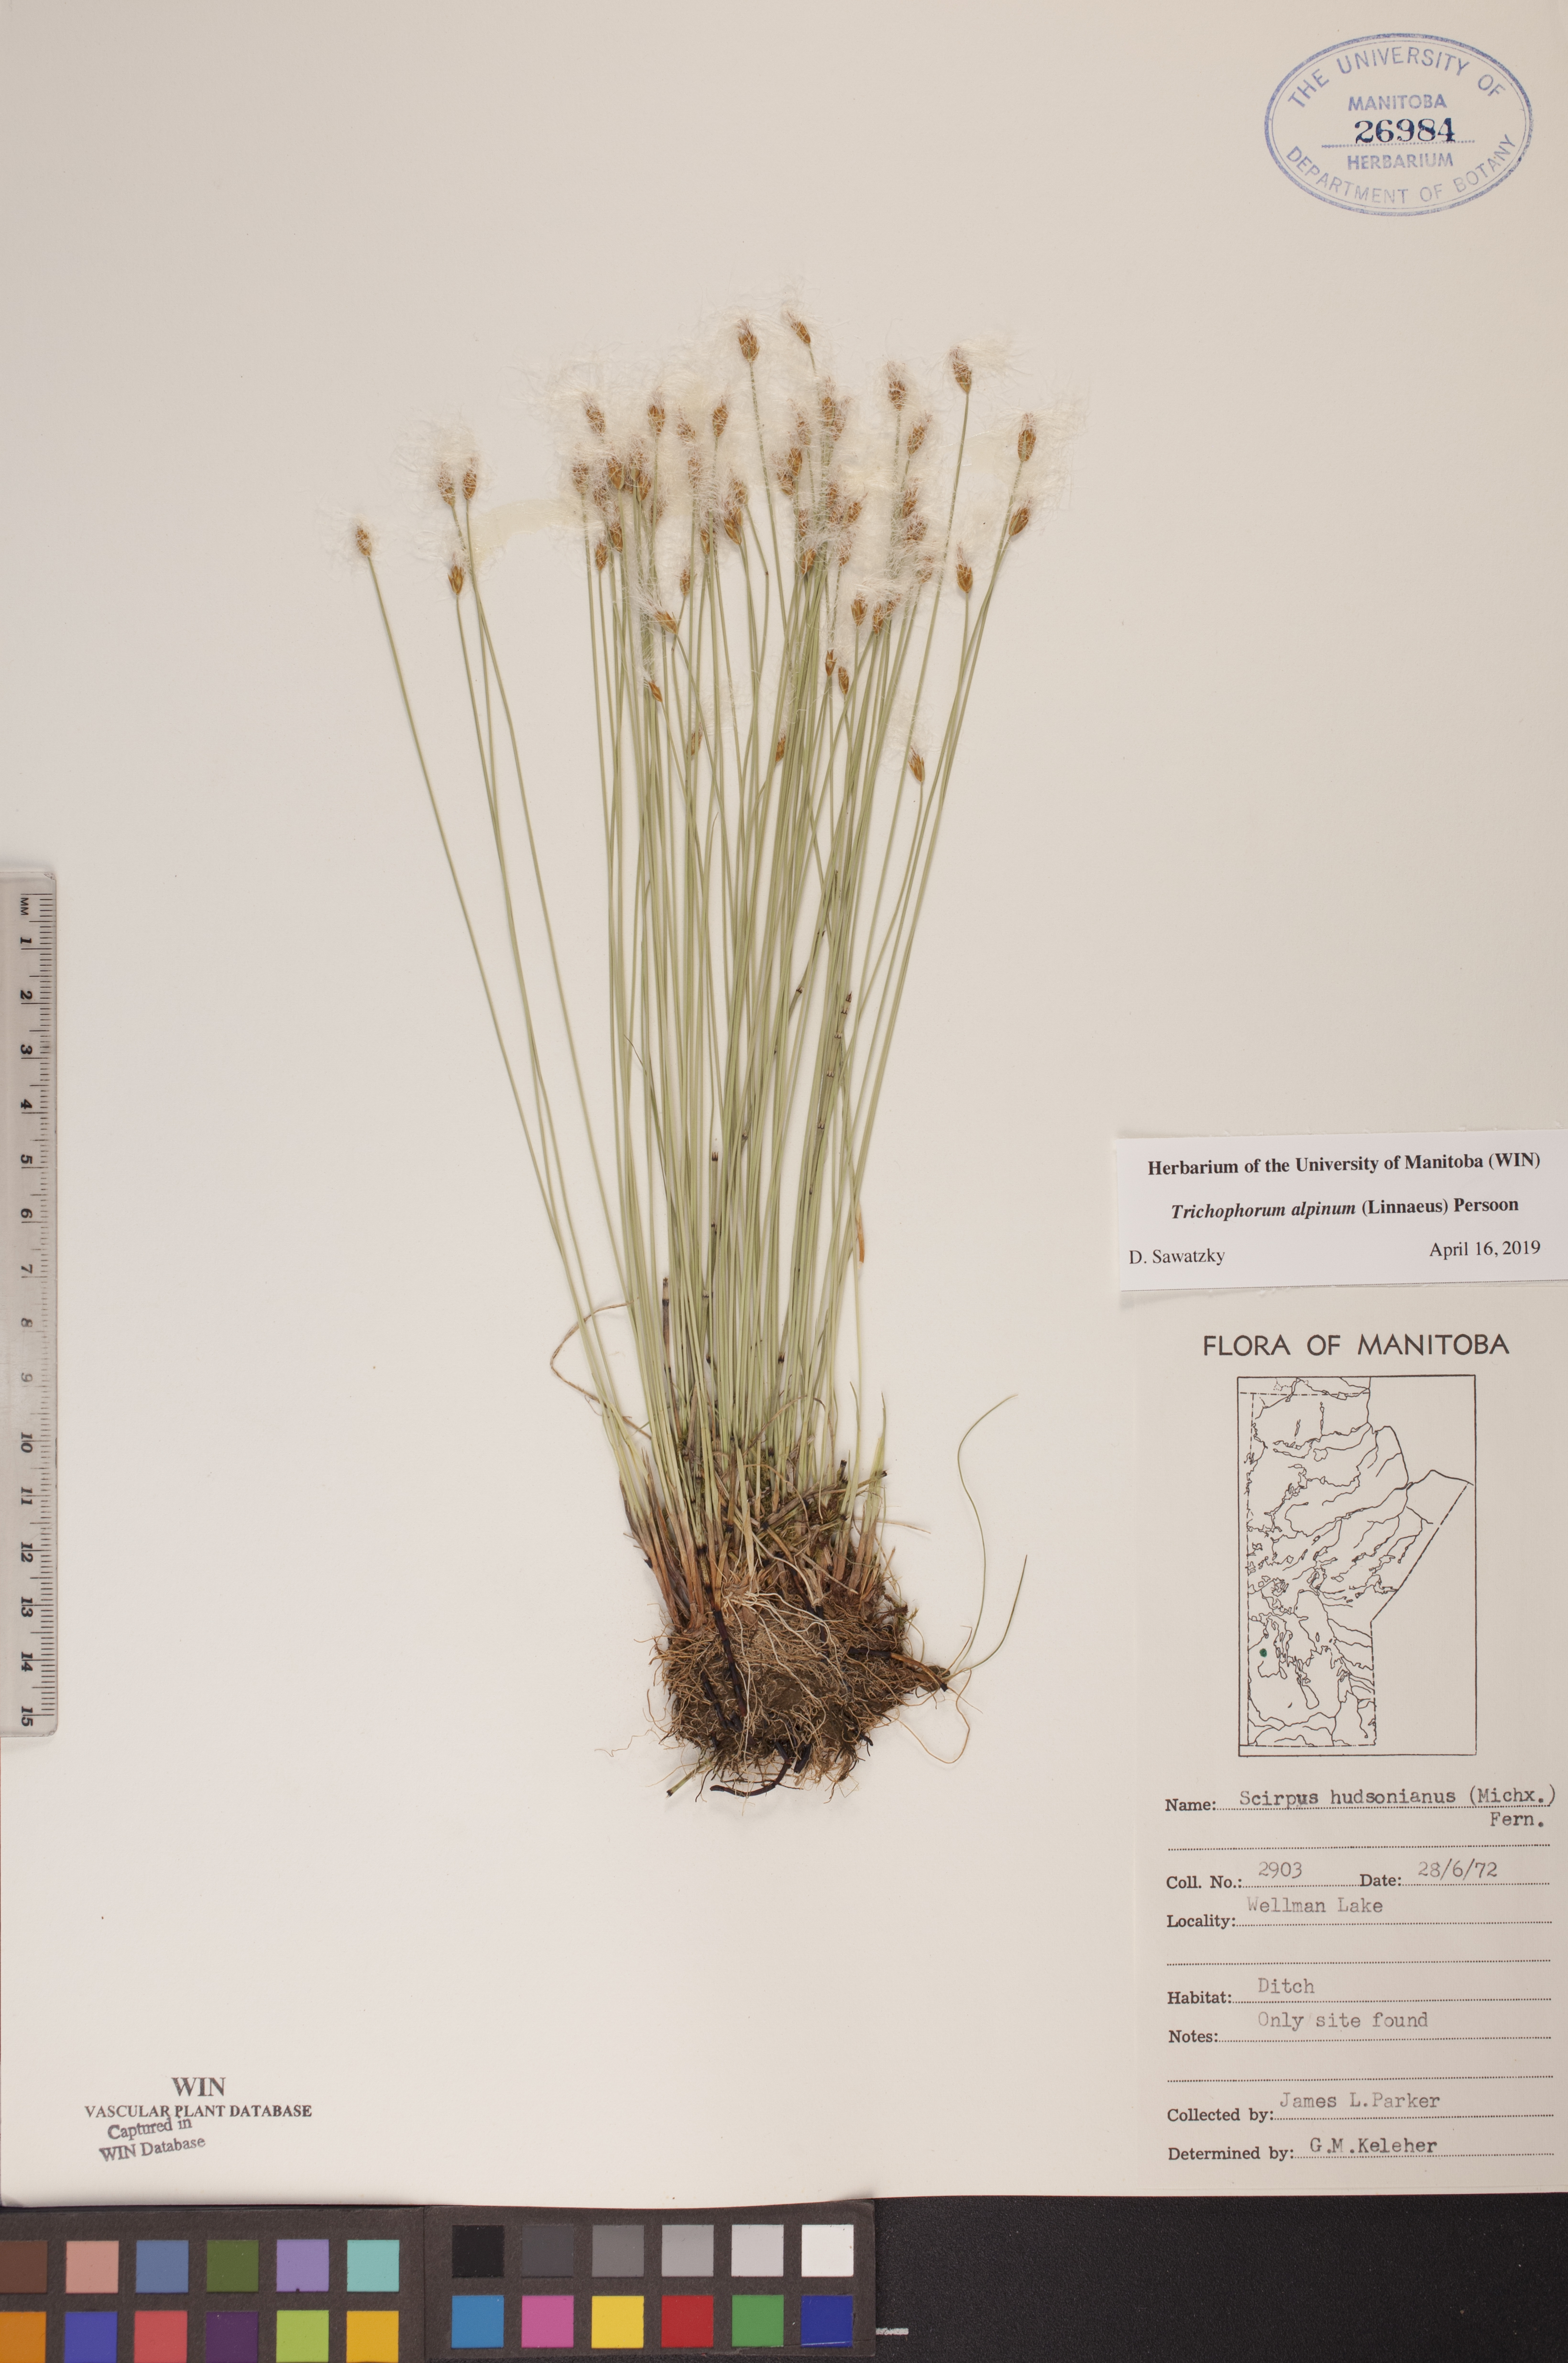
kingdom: Plantae
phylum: Tracheophyta
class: Liliopsida
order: Poales
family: Cyperaceae
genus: Trichophorum
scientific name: Trichophorum alpinum
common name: Alpine bulrush
